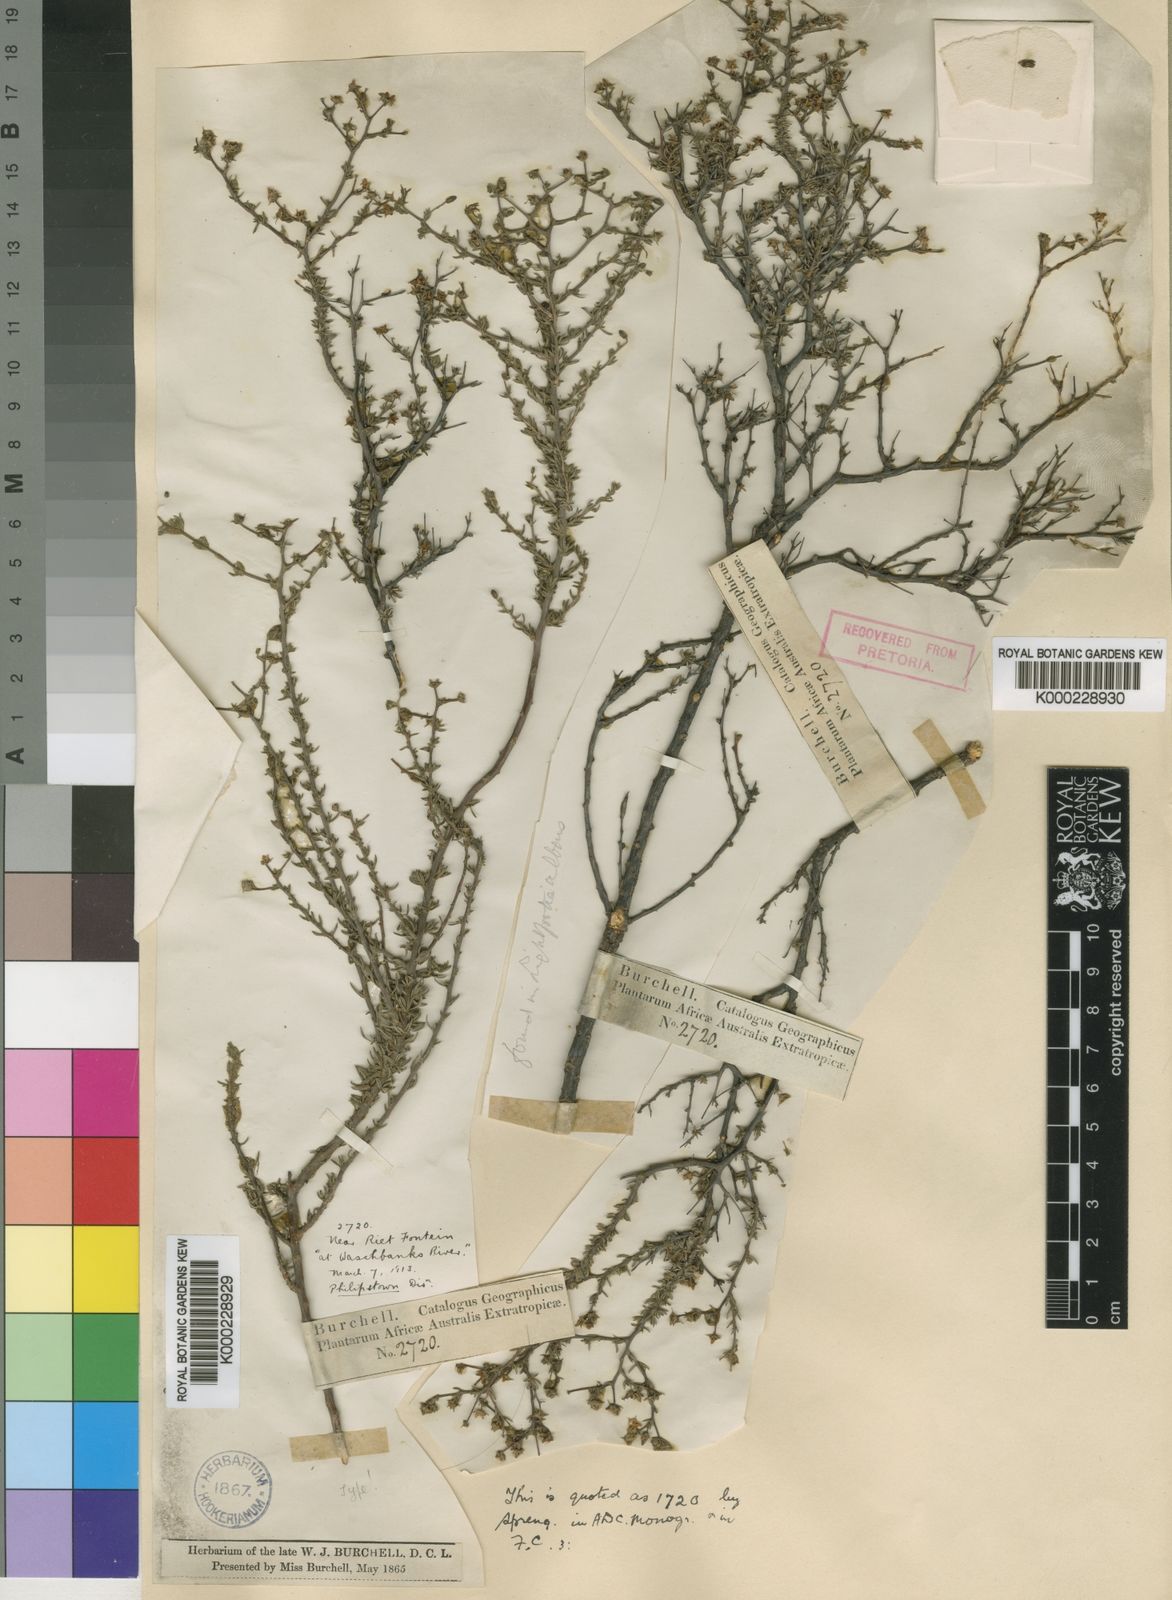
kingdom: Plantae
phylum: Tracheophyta
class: Magnoliopsida
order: Asterales
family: Campanulaceae
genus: Wahlenbergia
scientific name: Wahlenbergia albens
